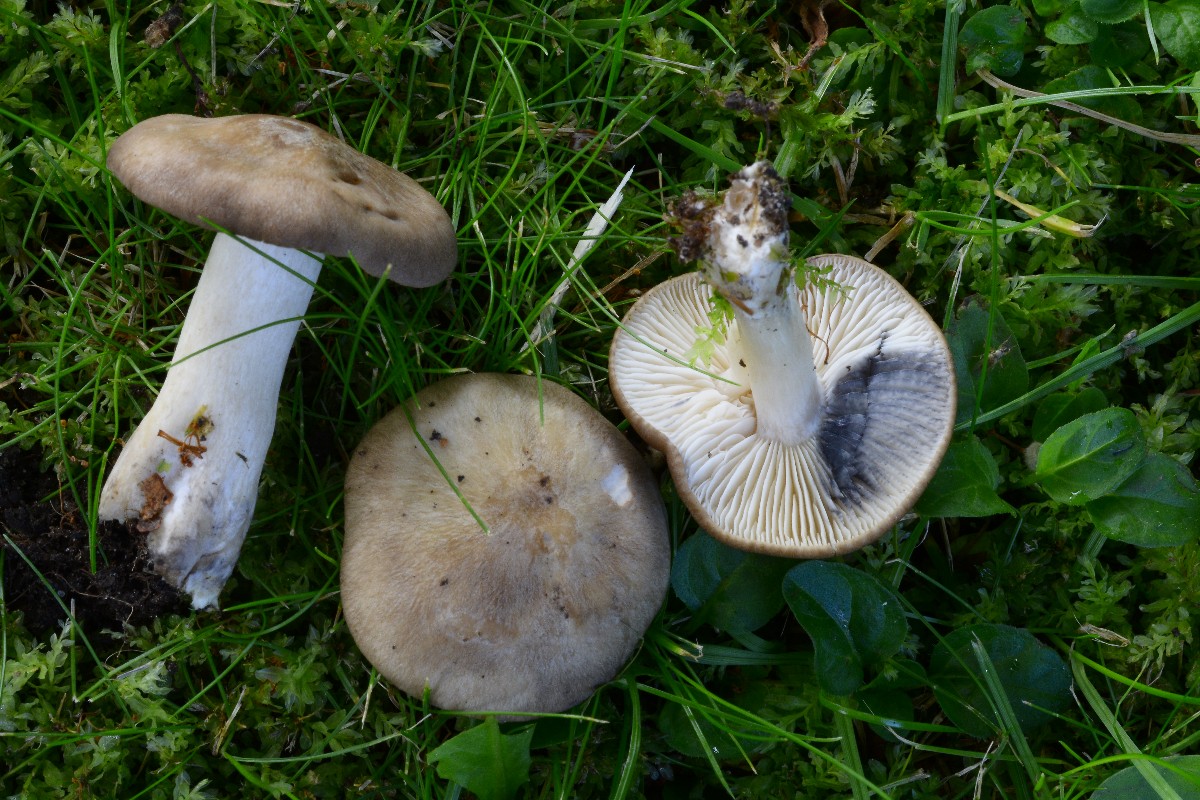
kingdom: Fungi
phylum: Basidiomycota
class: Agaricomycetes
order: Agaricales
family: Lyophyllaceae
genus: Lyophyllum
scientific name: Lyophyllum paelochroum
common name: blånende gråblad
